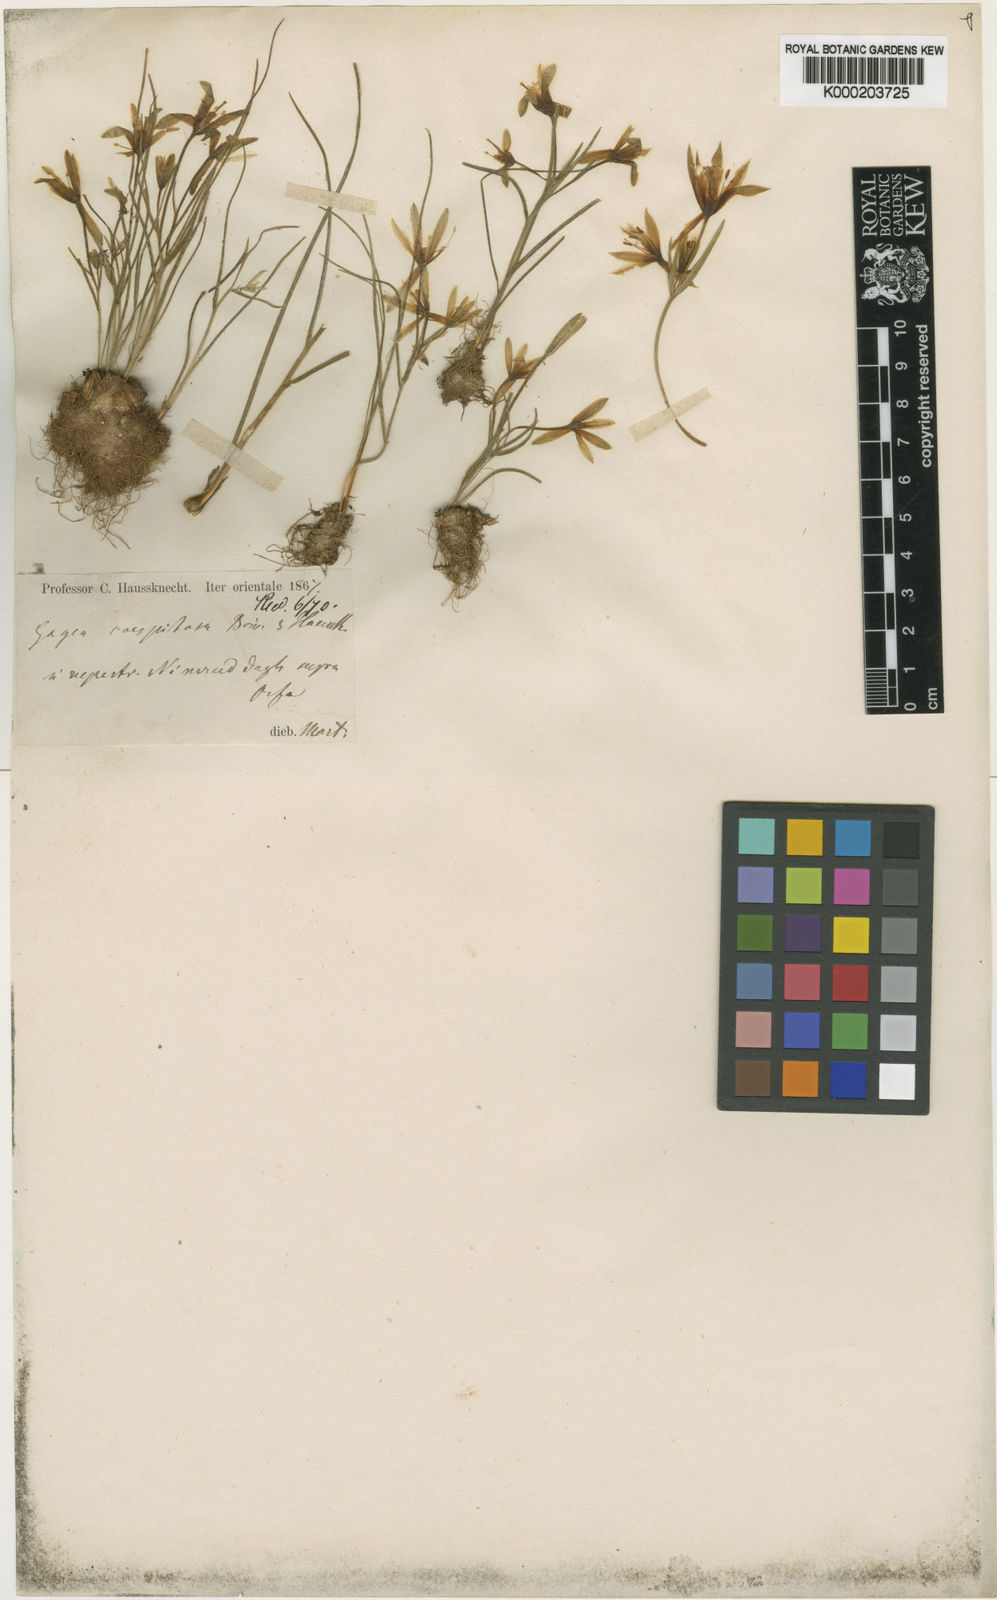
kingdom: Plantae
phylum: Tracheophyta
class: Liliopsida
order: Liliales
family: Liliaceae
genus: Gagea
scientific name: Gagea chlorantha
